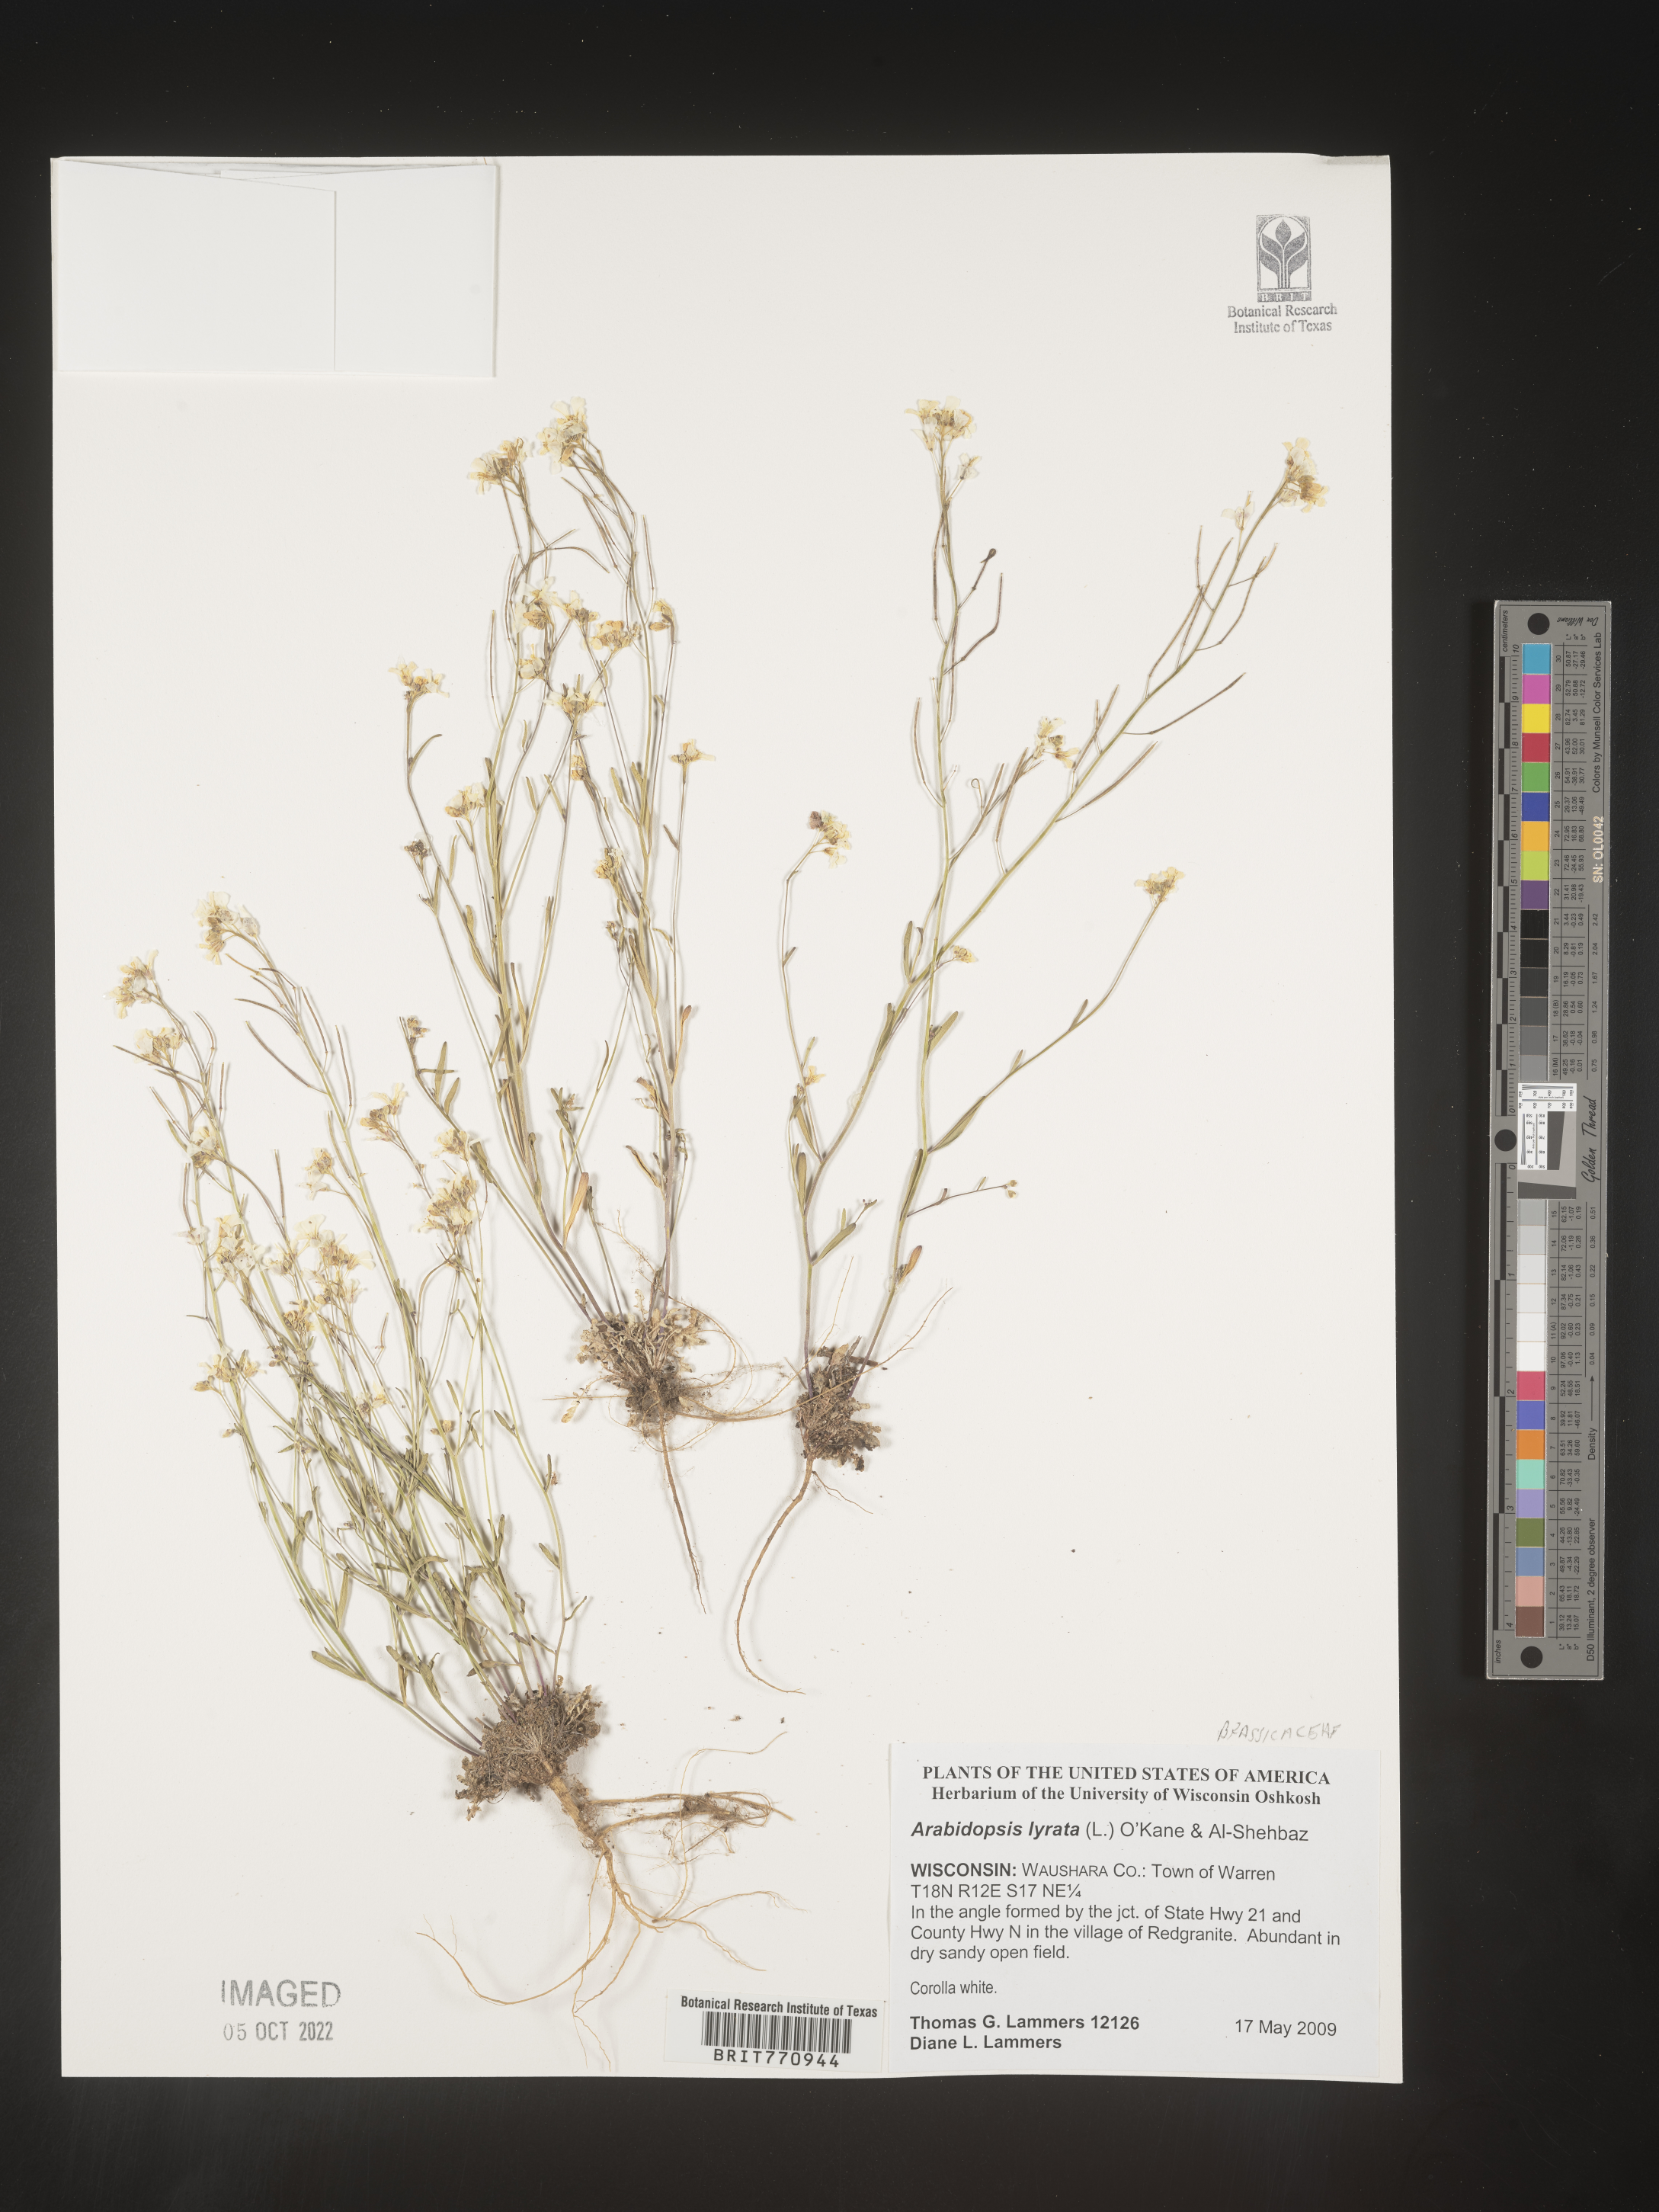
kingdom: Plantae
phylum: Tracheophyta
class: Magnoliopsida
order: Brassicales
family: Brassicaceae
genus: Arabidopsis
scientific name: Arabidopsis
